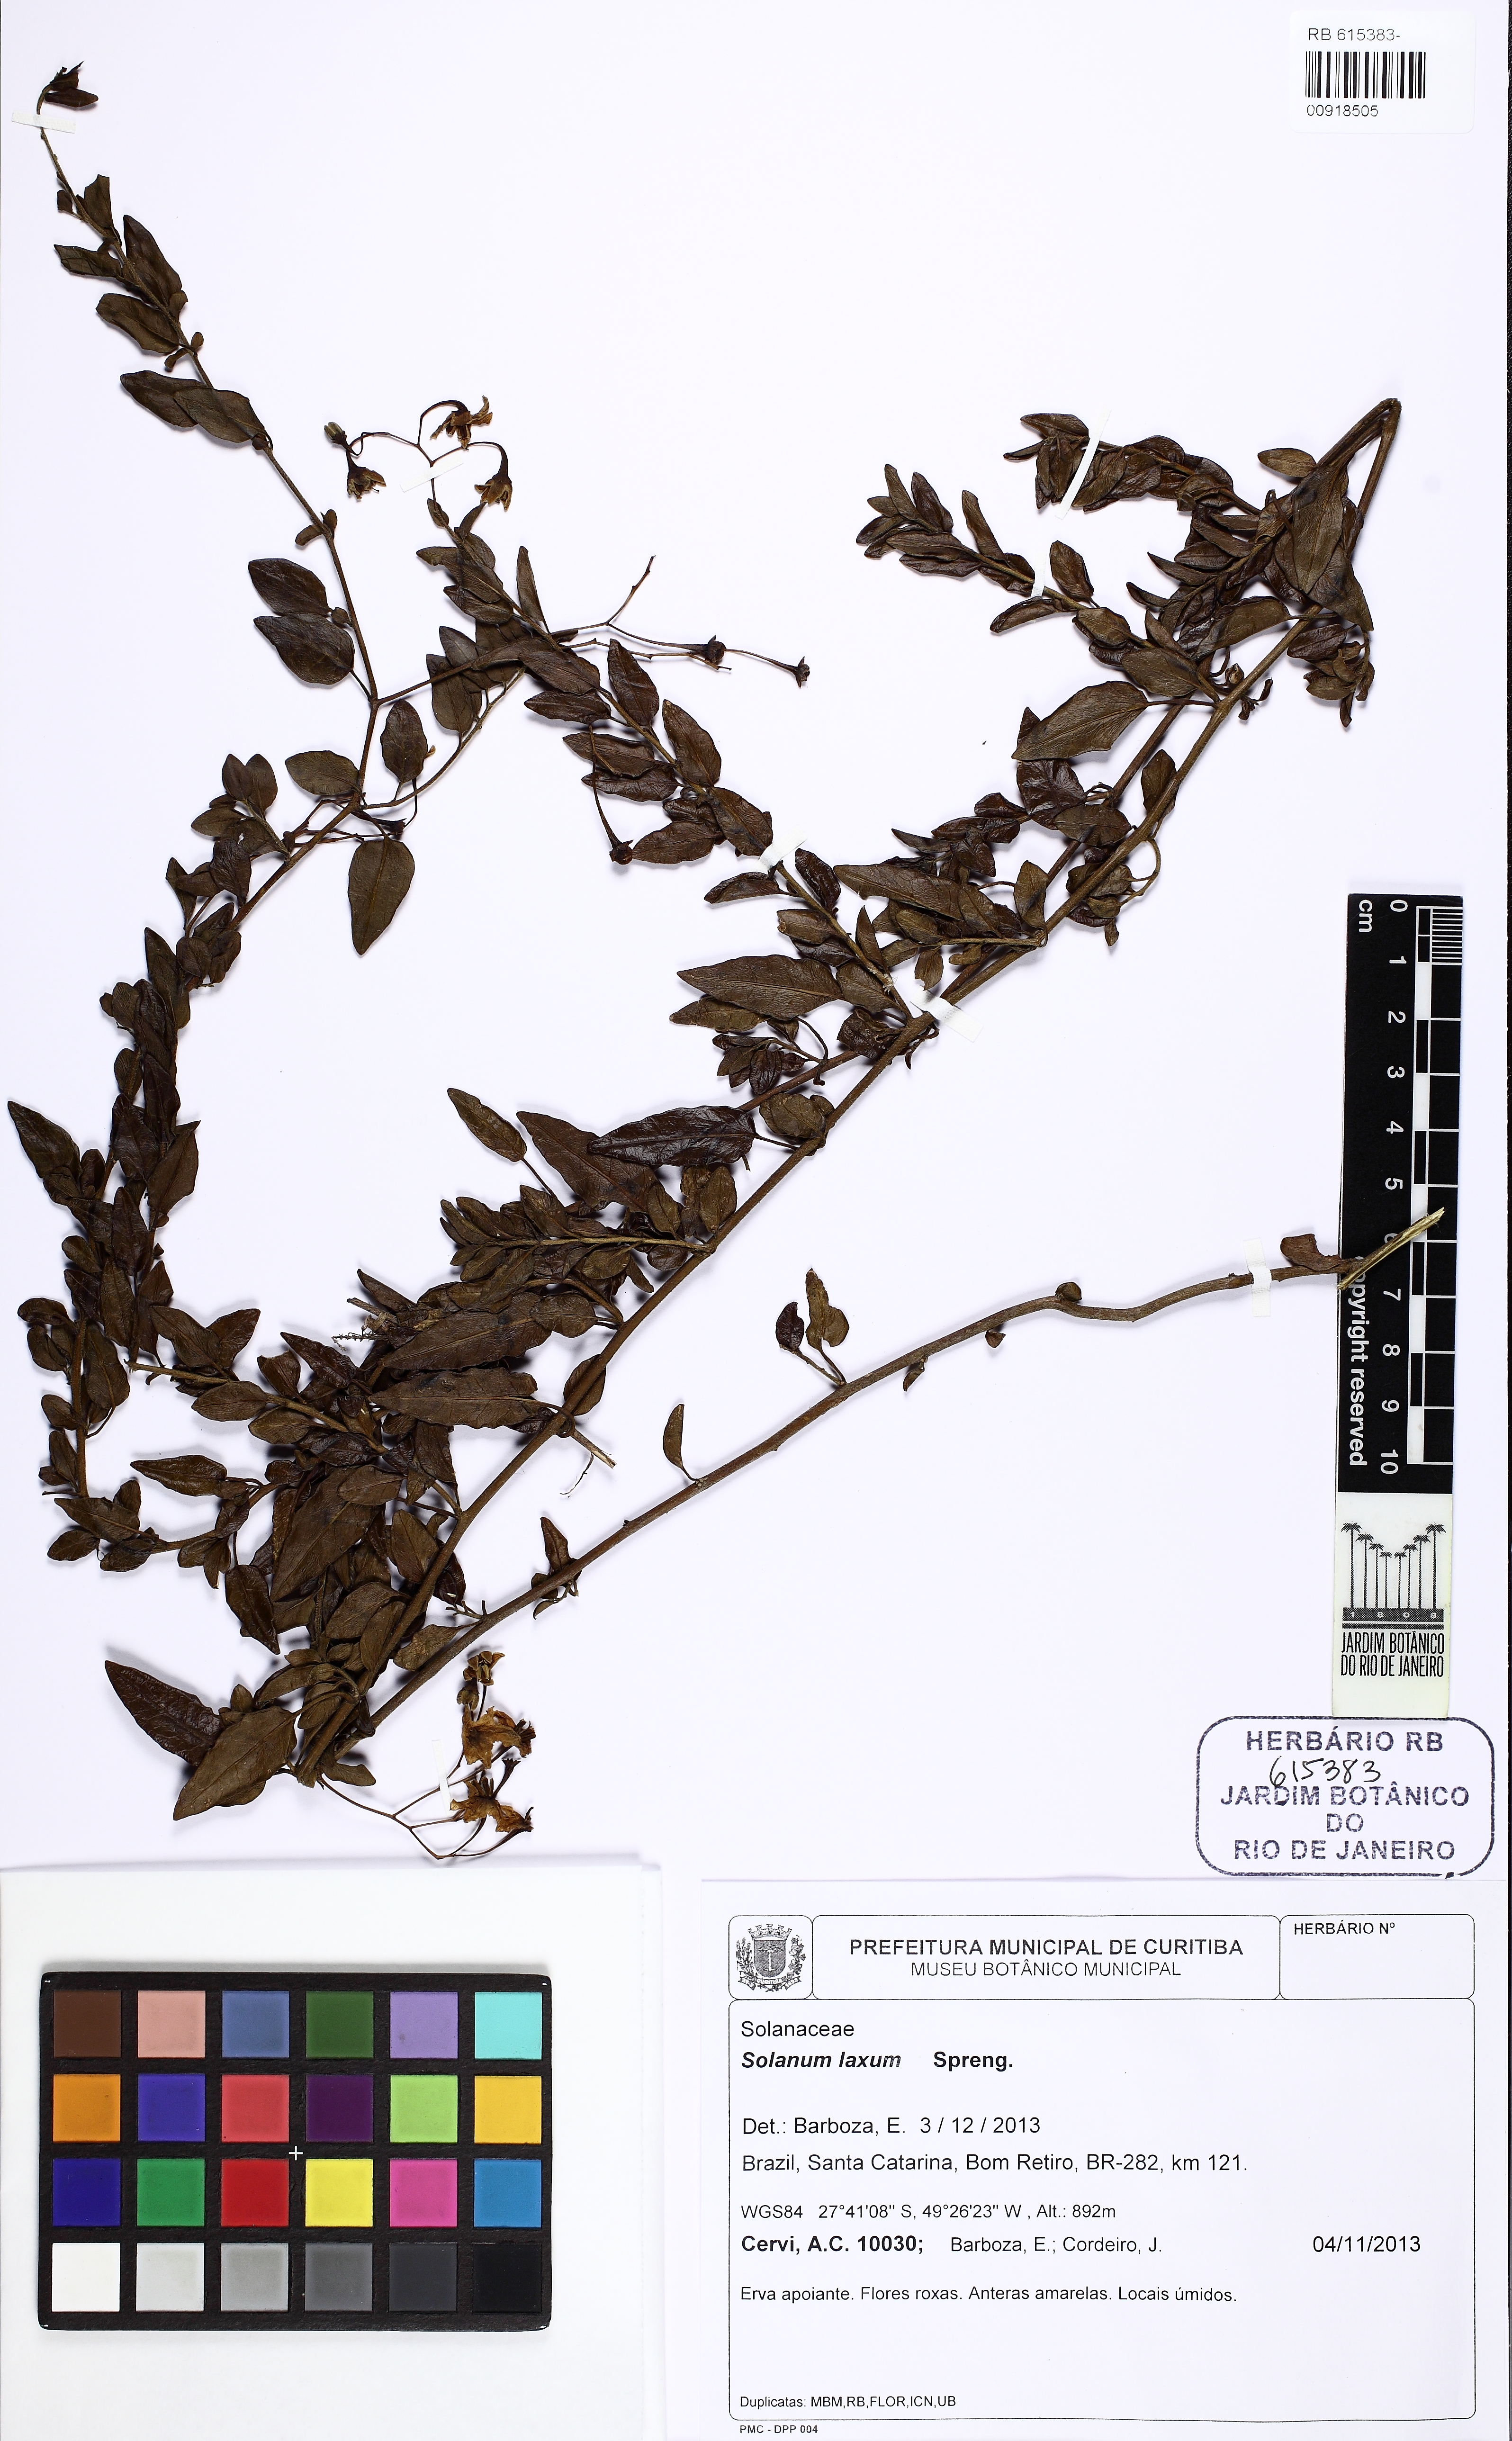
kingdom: Plantae
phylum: Tracheophyta
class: Magnoliopsida
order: Solanales
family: Solanaceae
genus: Solanum
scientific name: Solanum laxum
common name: Nightshade
